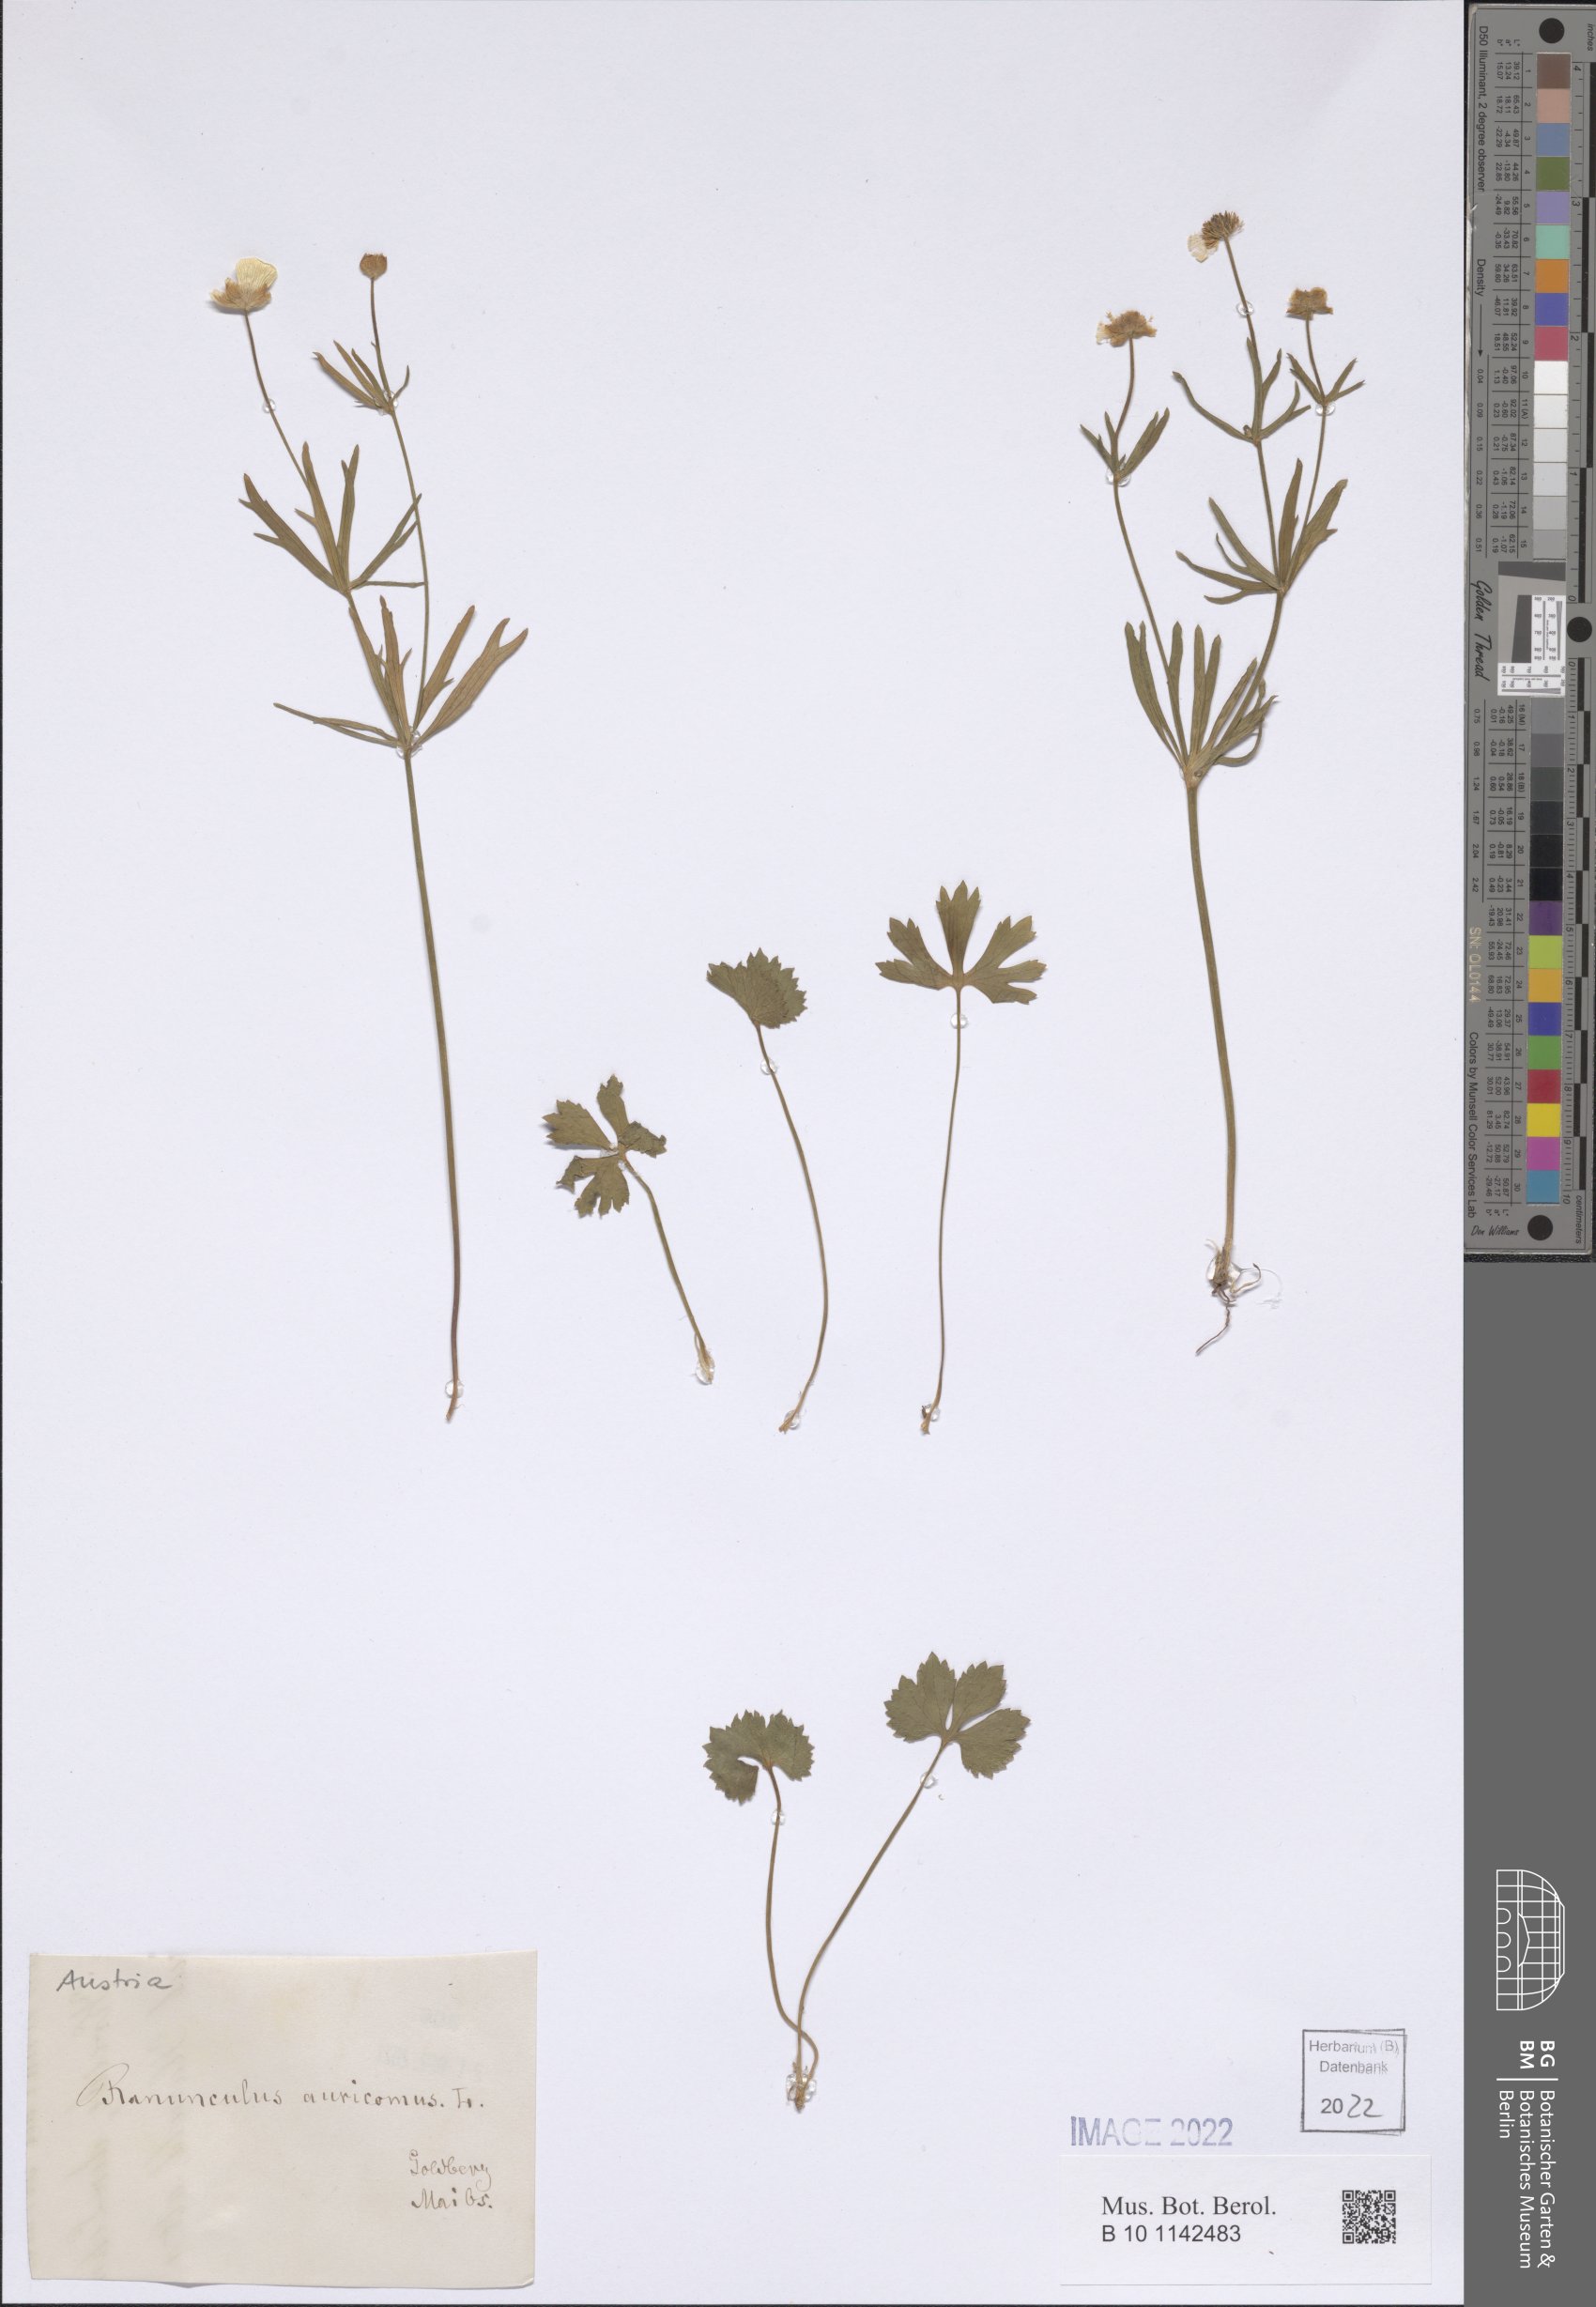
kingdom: Plantae
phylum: Tracheophyta
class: Magnoliopsida
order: Ranunculales
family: Ranunculaceae
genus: Ranunculus
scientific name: Ranunculus auricomus
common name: Goldilocks buttercup
